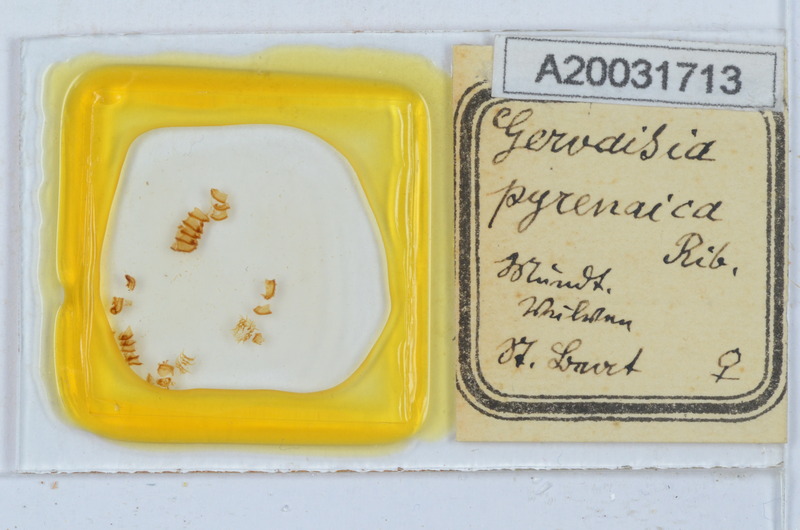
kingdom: Animalia
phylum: Arthropoda
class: Diplopoda
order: Glomerida
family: Glomeridae
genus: Trachysphaera
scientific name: Trachysphaera pyrenaica
